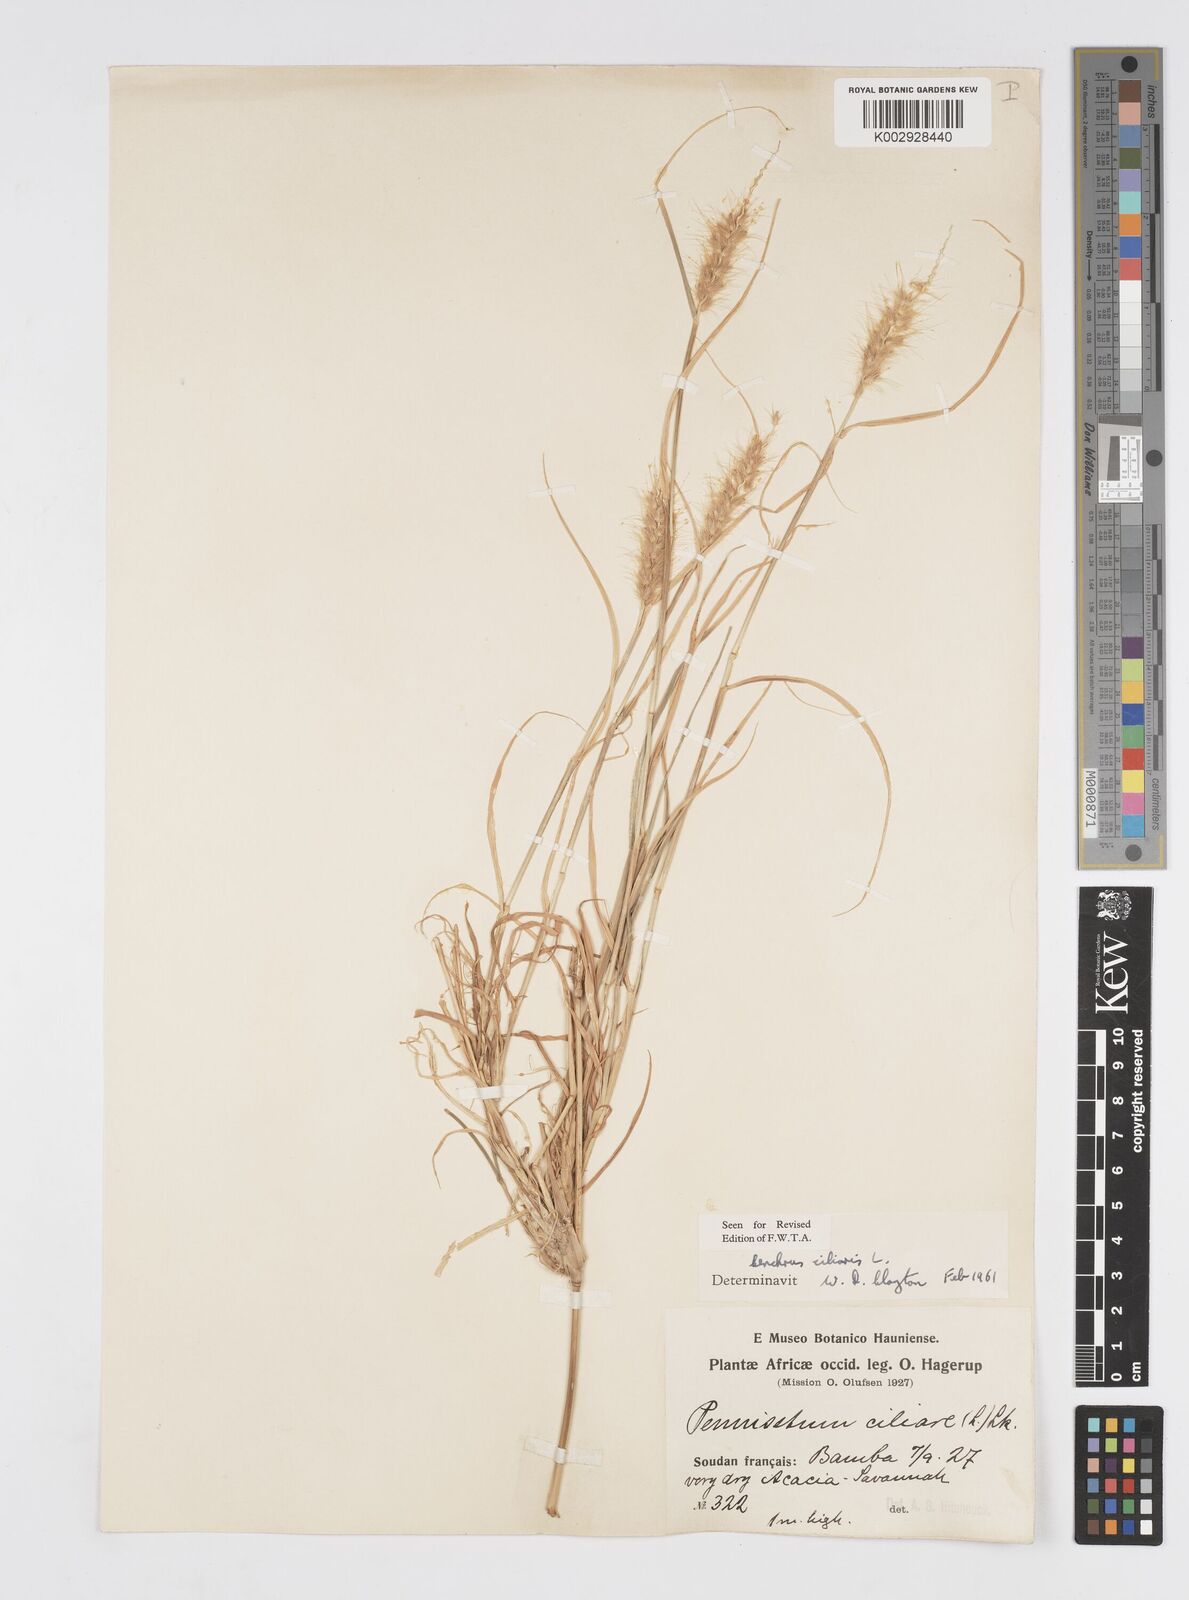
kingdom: Plantae
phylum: Tracheophyta
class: Liliopsida
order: Poales
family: Poaceae
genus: Cenchrus
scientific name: Cenchrus ciliaris
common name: Buffelgrass
